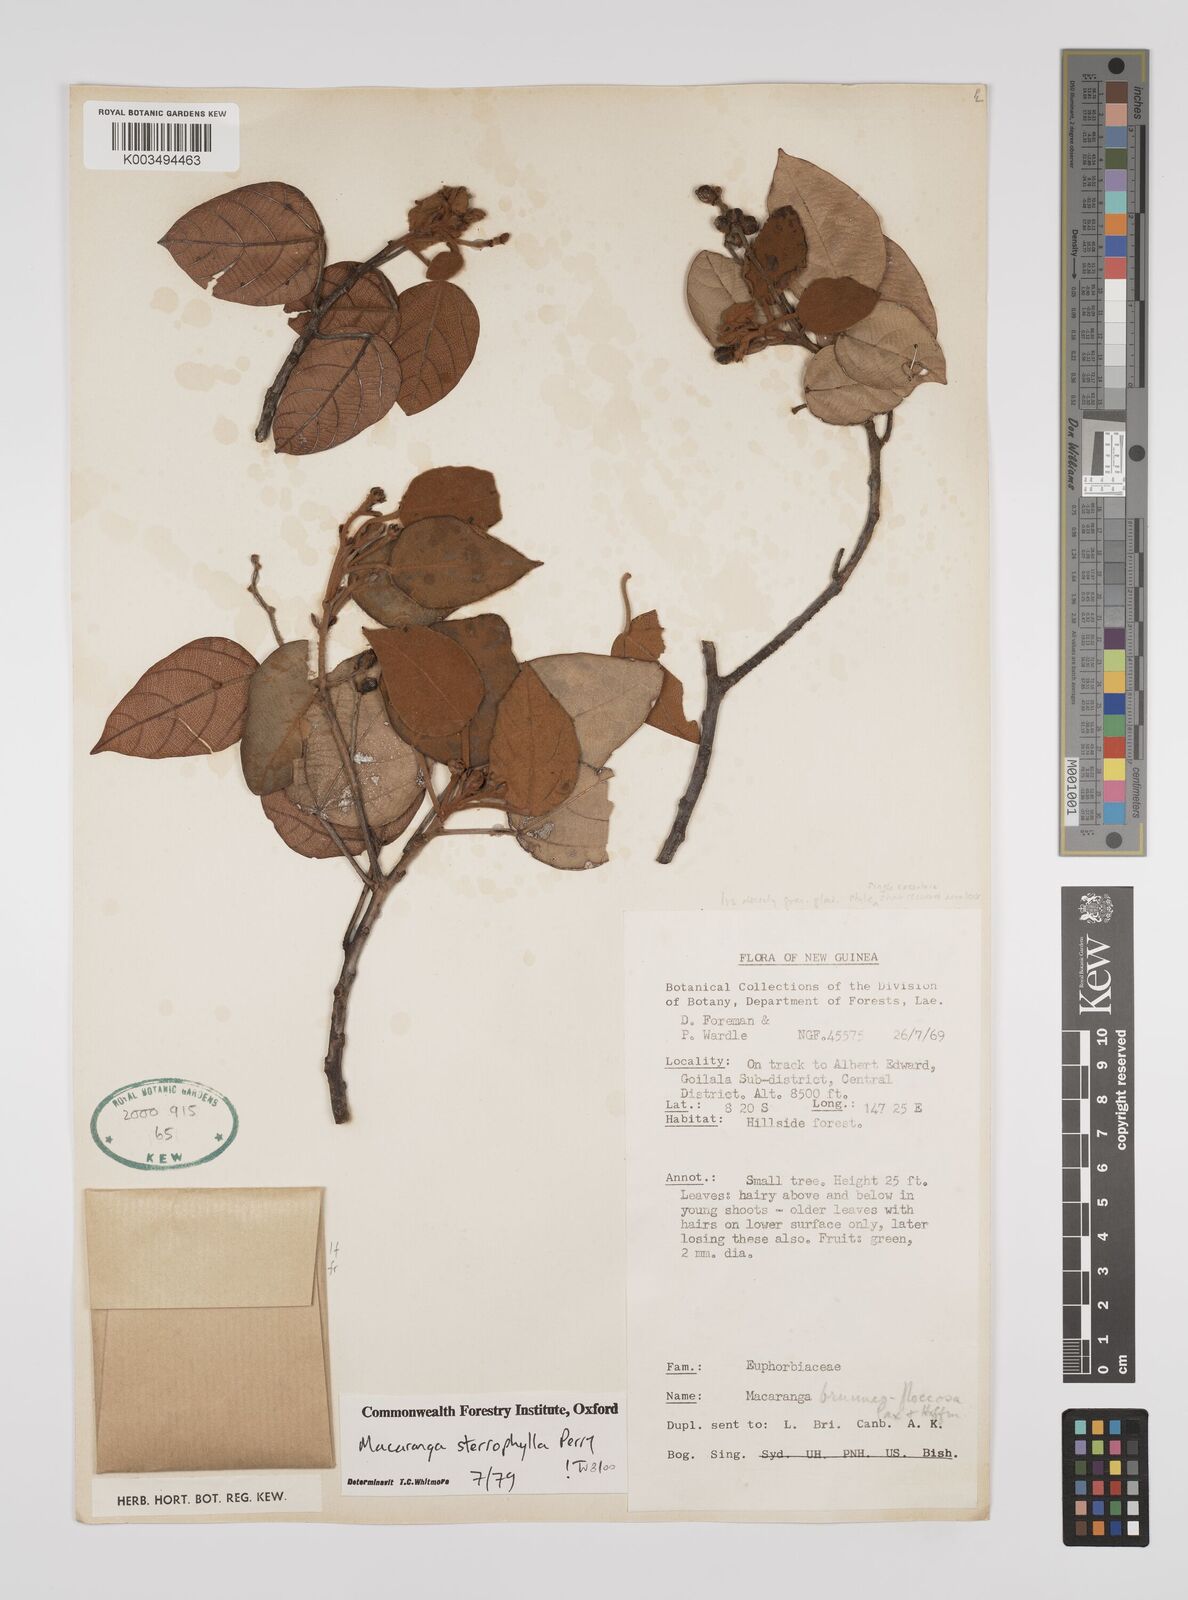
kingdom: Plantae
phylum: Tracheophyta
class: Magnoliopsida
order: Malpighiales
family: Euphorbiaceae
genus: Macaranga
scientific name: Macaranga stenophylla
